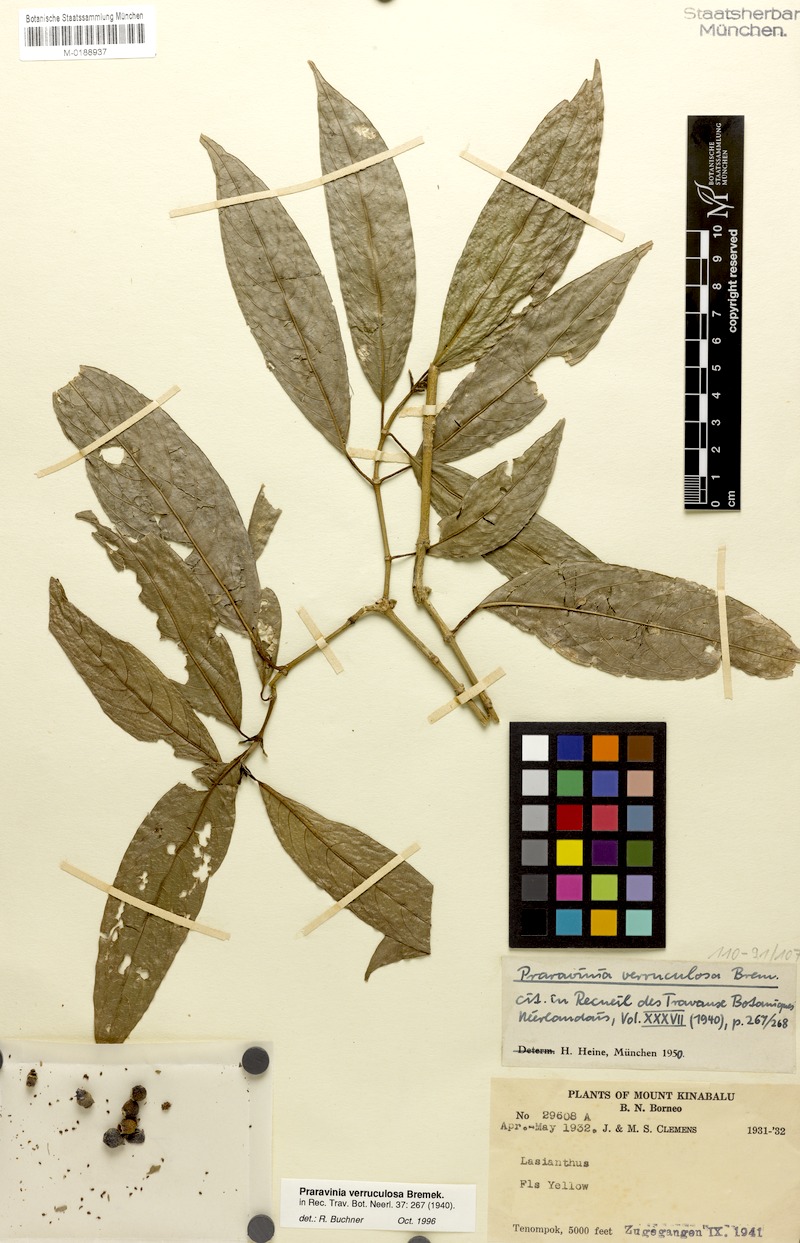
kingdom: Plantae
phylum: Tracheophyta
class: Magnoliopsida
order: Gentianales
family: Rubiaceae
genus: Praravinia
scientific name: Praravinia verruculosa
